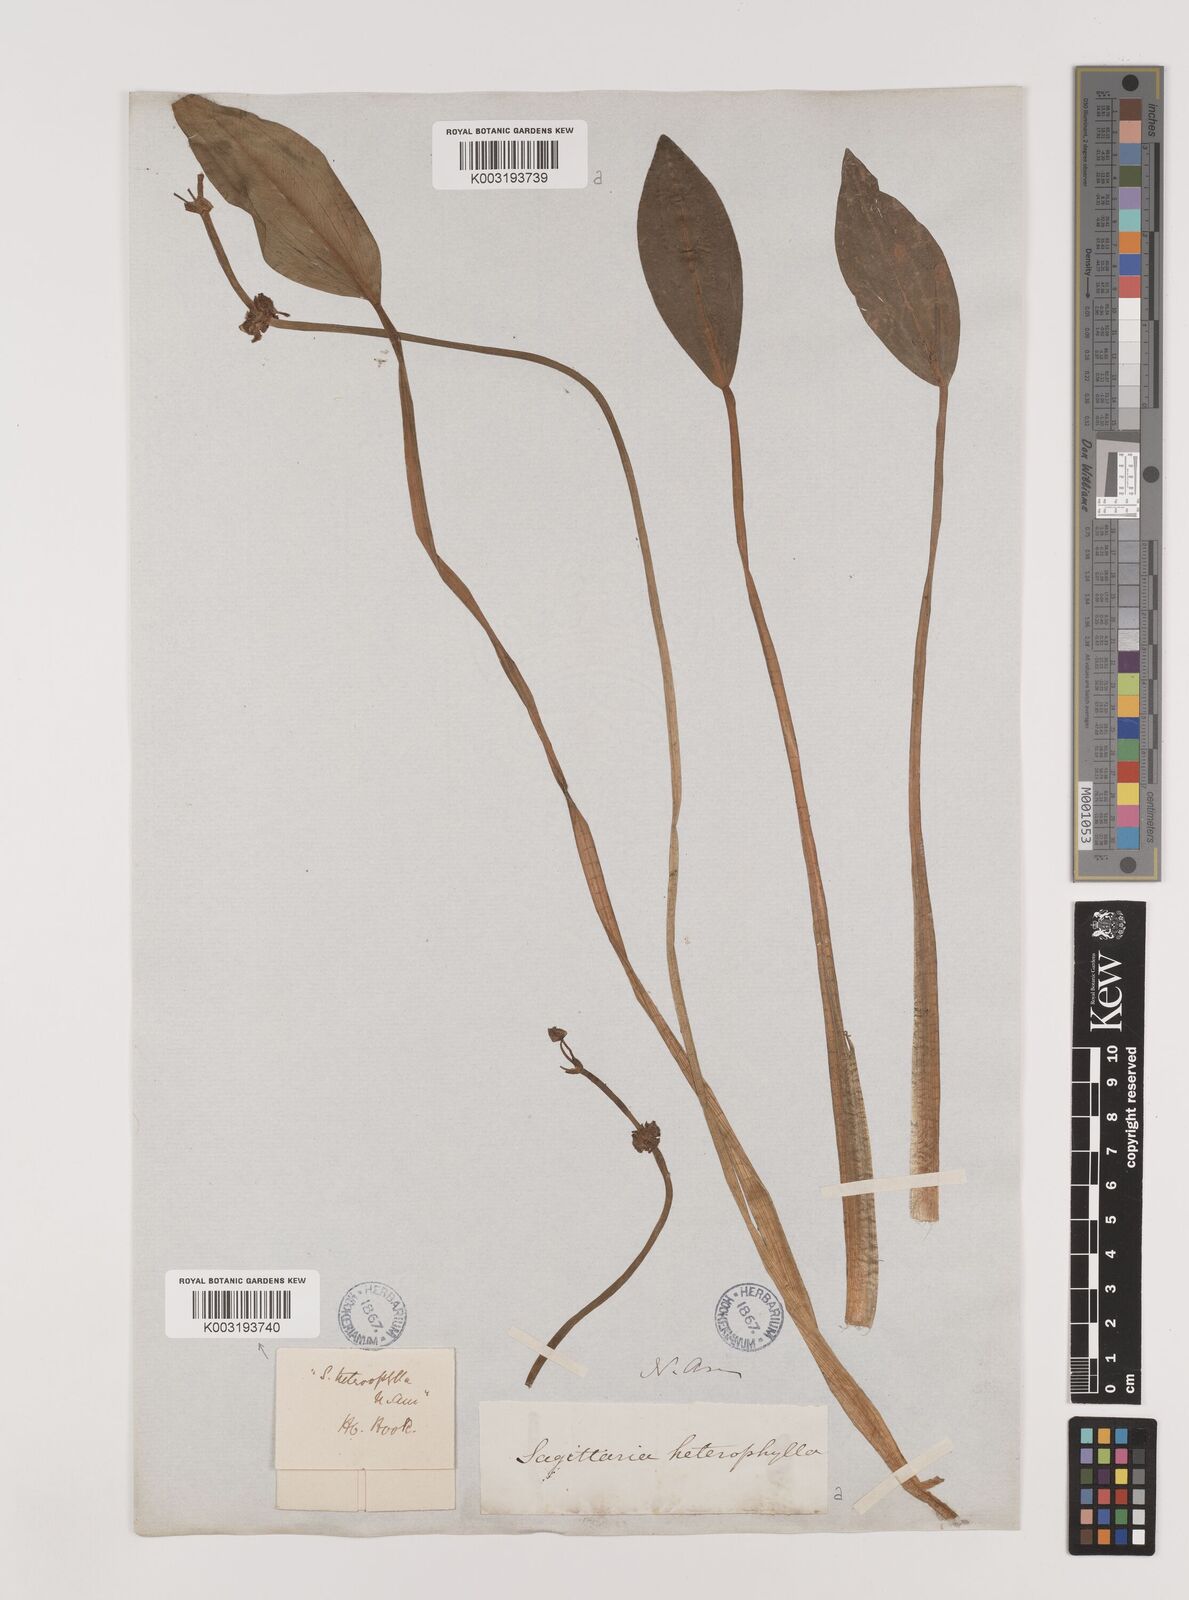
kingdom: Plantae
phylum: Tracheophyta
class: Liliopsida
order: Alismatales
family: Alismataceae
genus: Sagittaria
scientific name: Sagittaria rigida
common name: Canadian arrowhead
